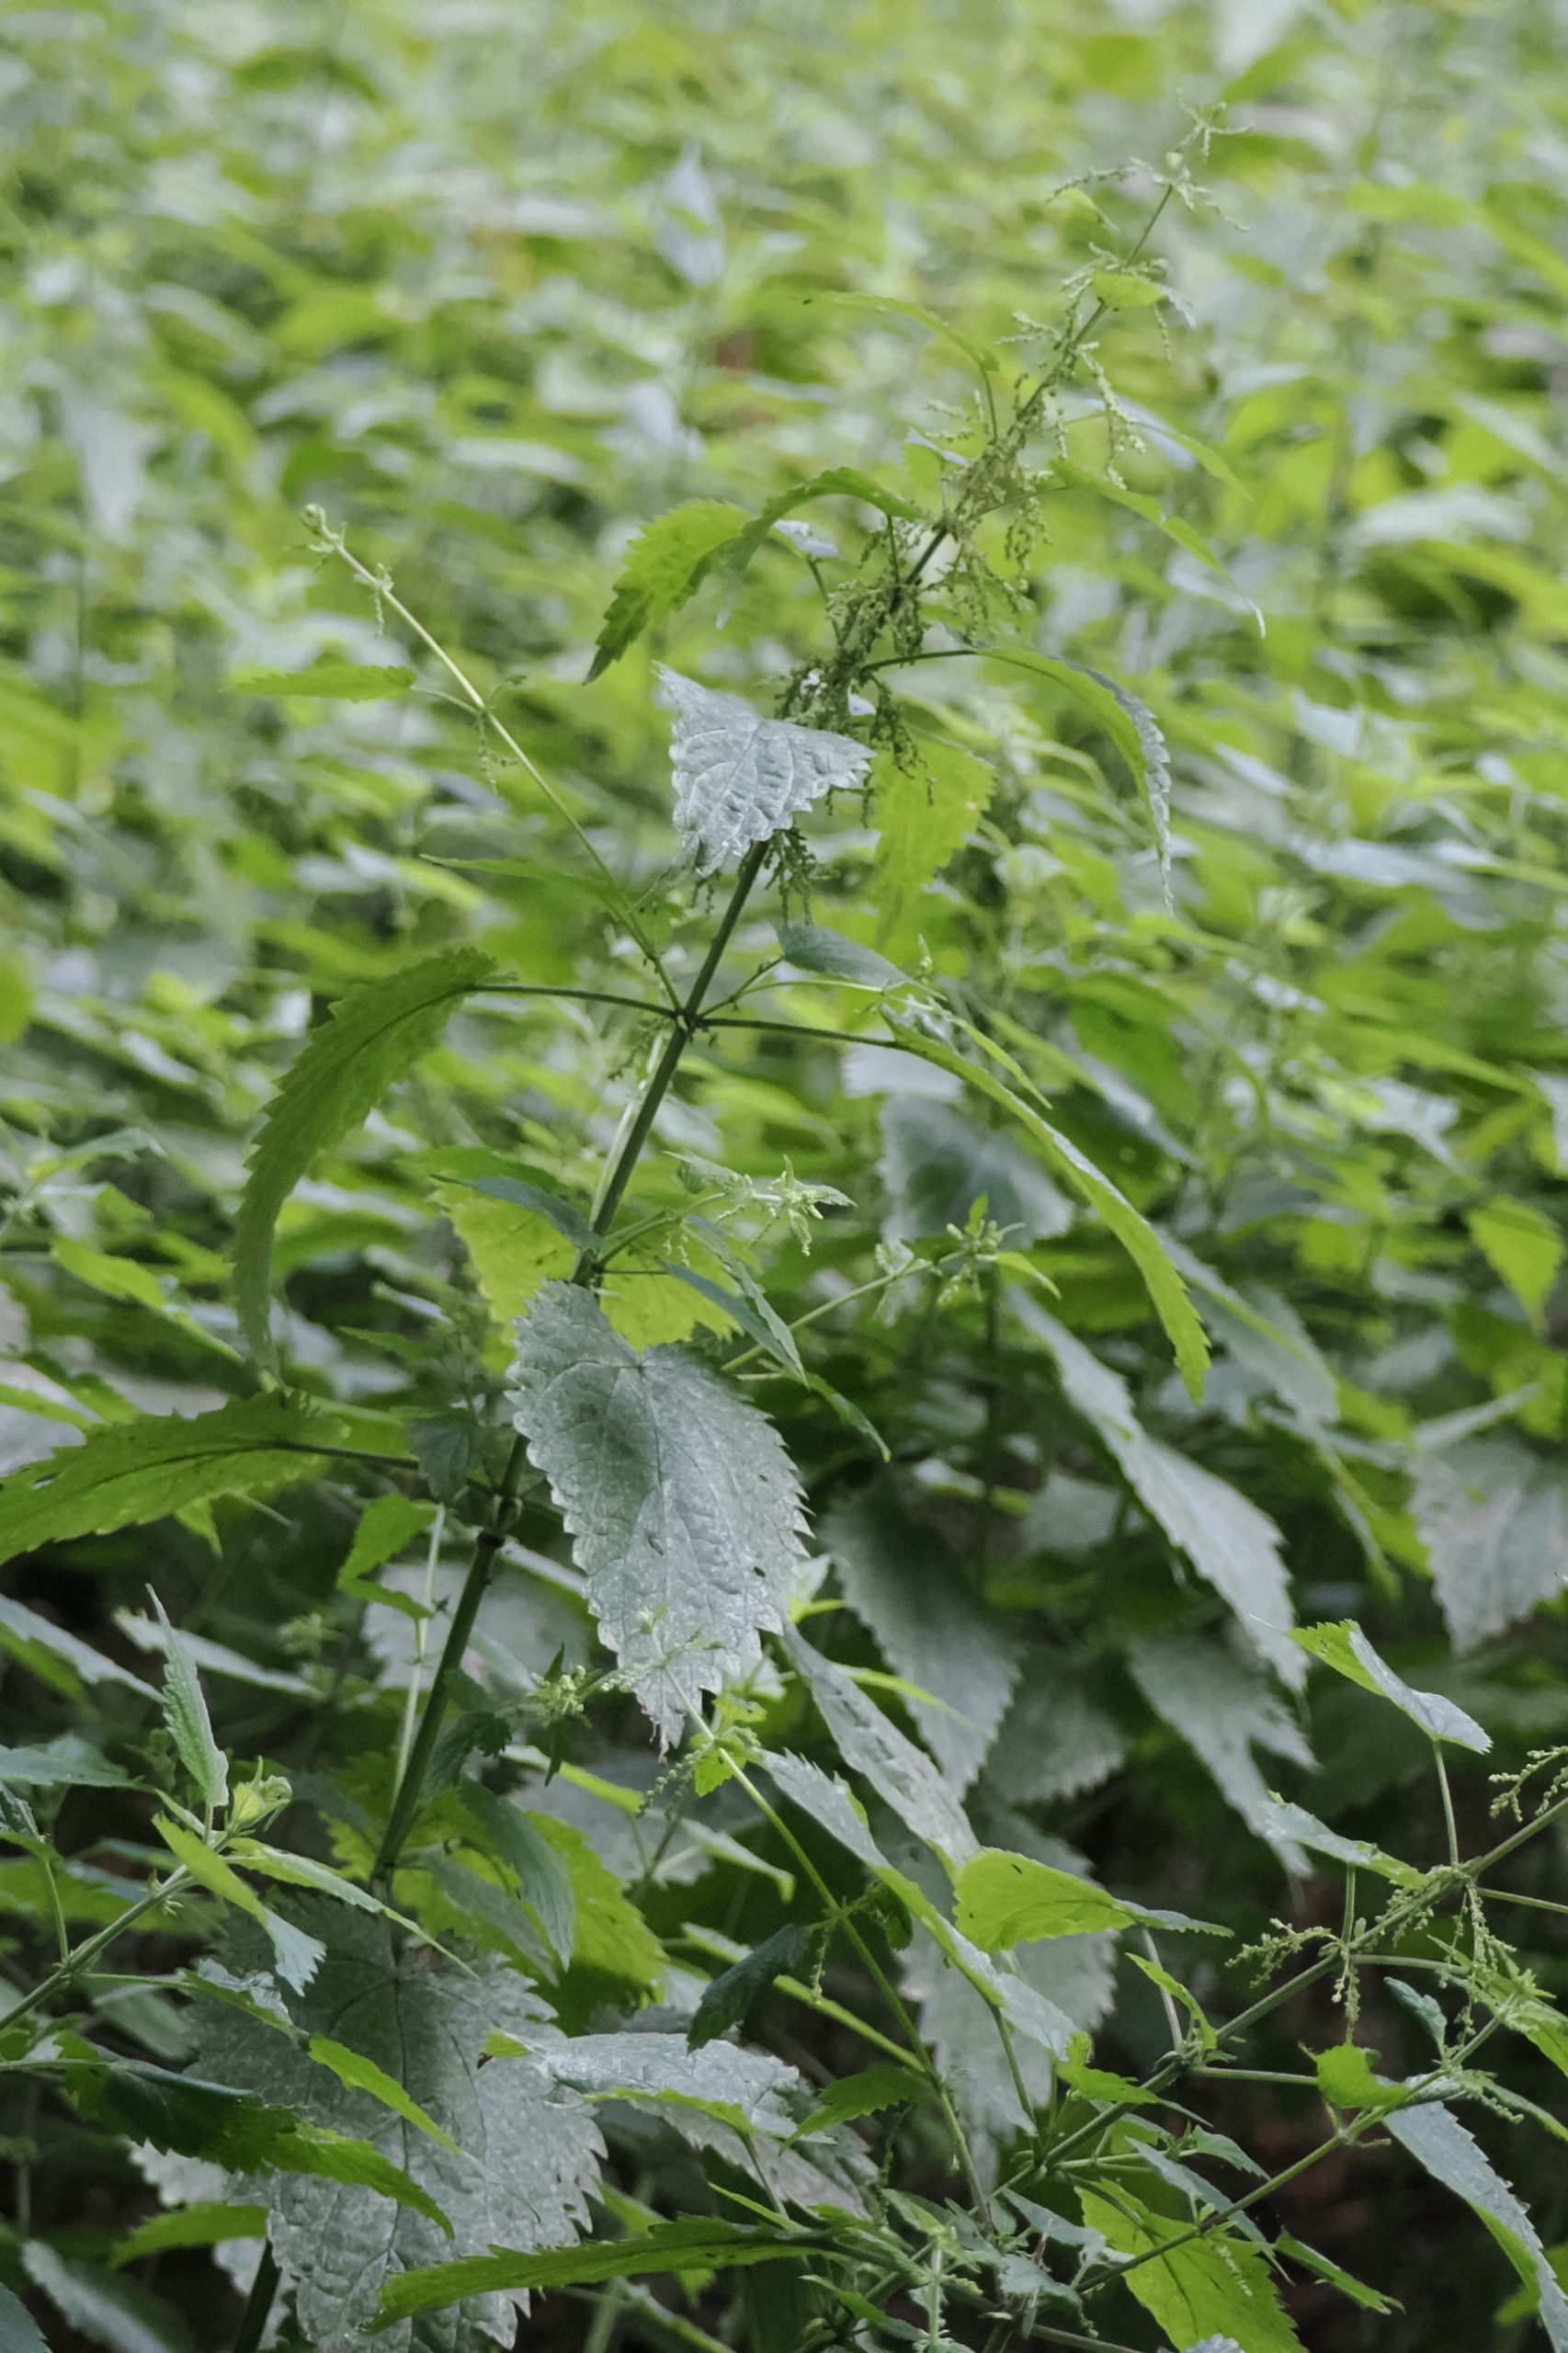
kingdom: Plantae
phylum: Tracheophyta
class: Magnoliopsida
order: Rosales
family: Urticaceae
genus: Urtica
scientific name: Urtica dioica
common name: Skov-nælde
